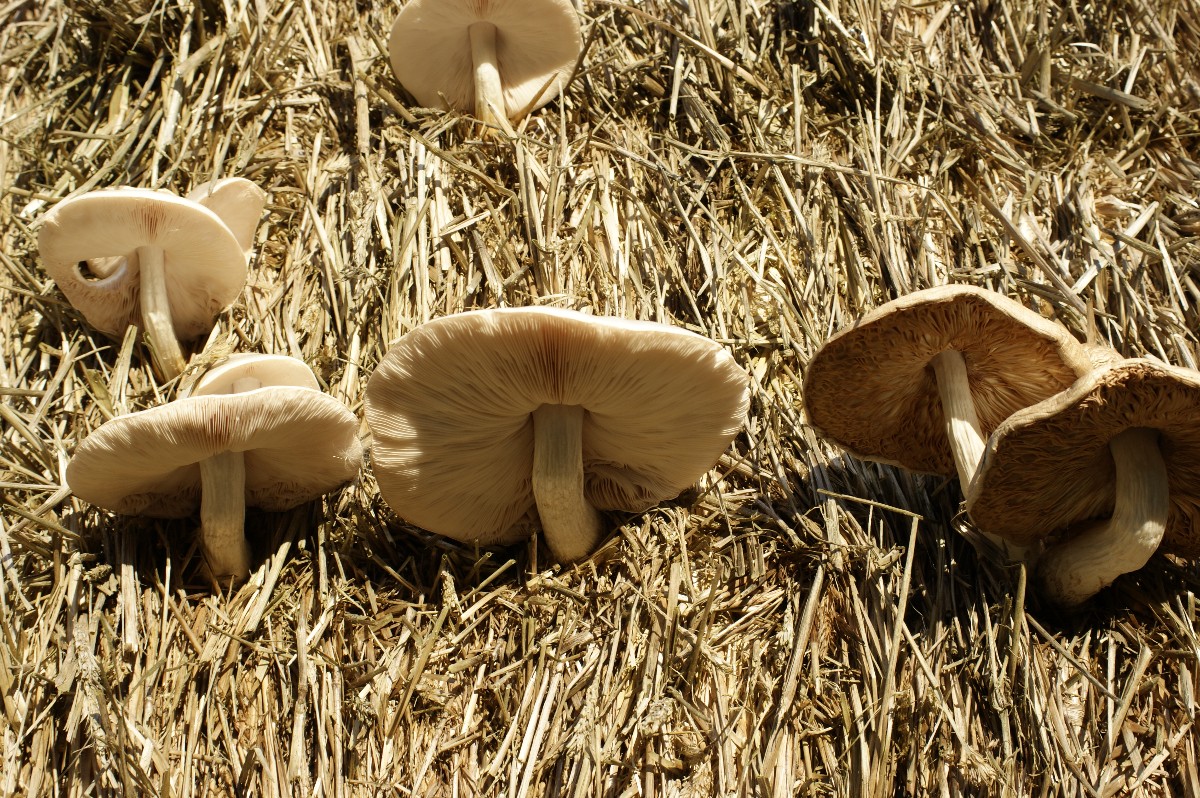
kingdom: Fungi
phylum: Basidiomycota
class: Agaricomycetes
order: Agaricales
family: Pluteaceae
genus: Volvopluteus
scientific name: Volvopluteus gloiocephalus
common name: høj posesvamp
